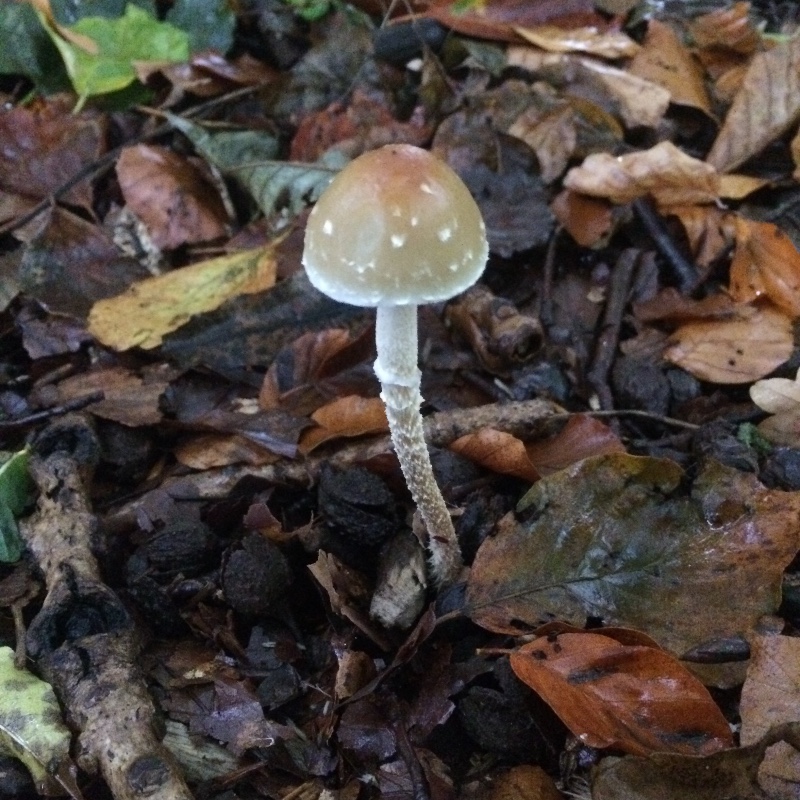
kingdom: Fungi
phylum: Basidiomycota
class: Agaricomycetes
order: Agaricales
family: Strophariaceae
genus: Leratiomyces
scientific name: Leratiomyces squamosus
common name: skællet bredblad
